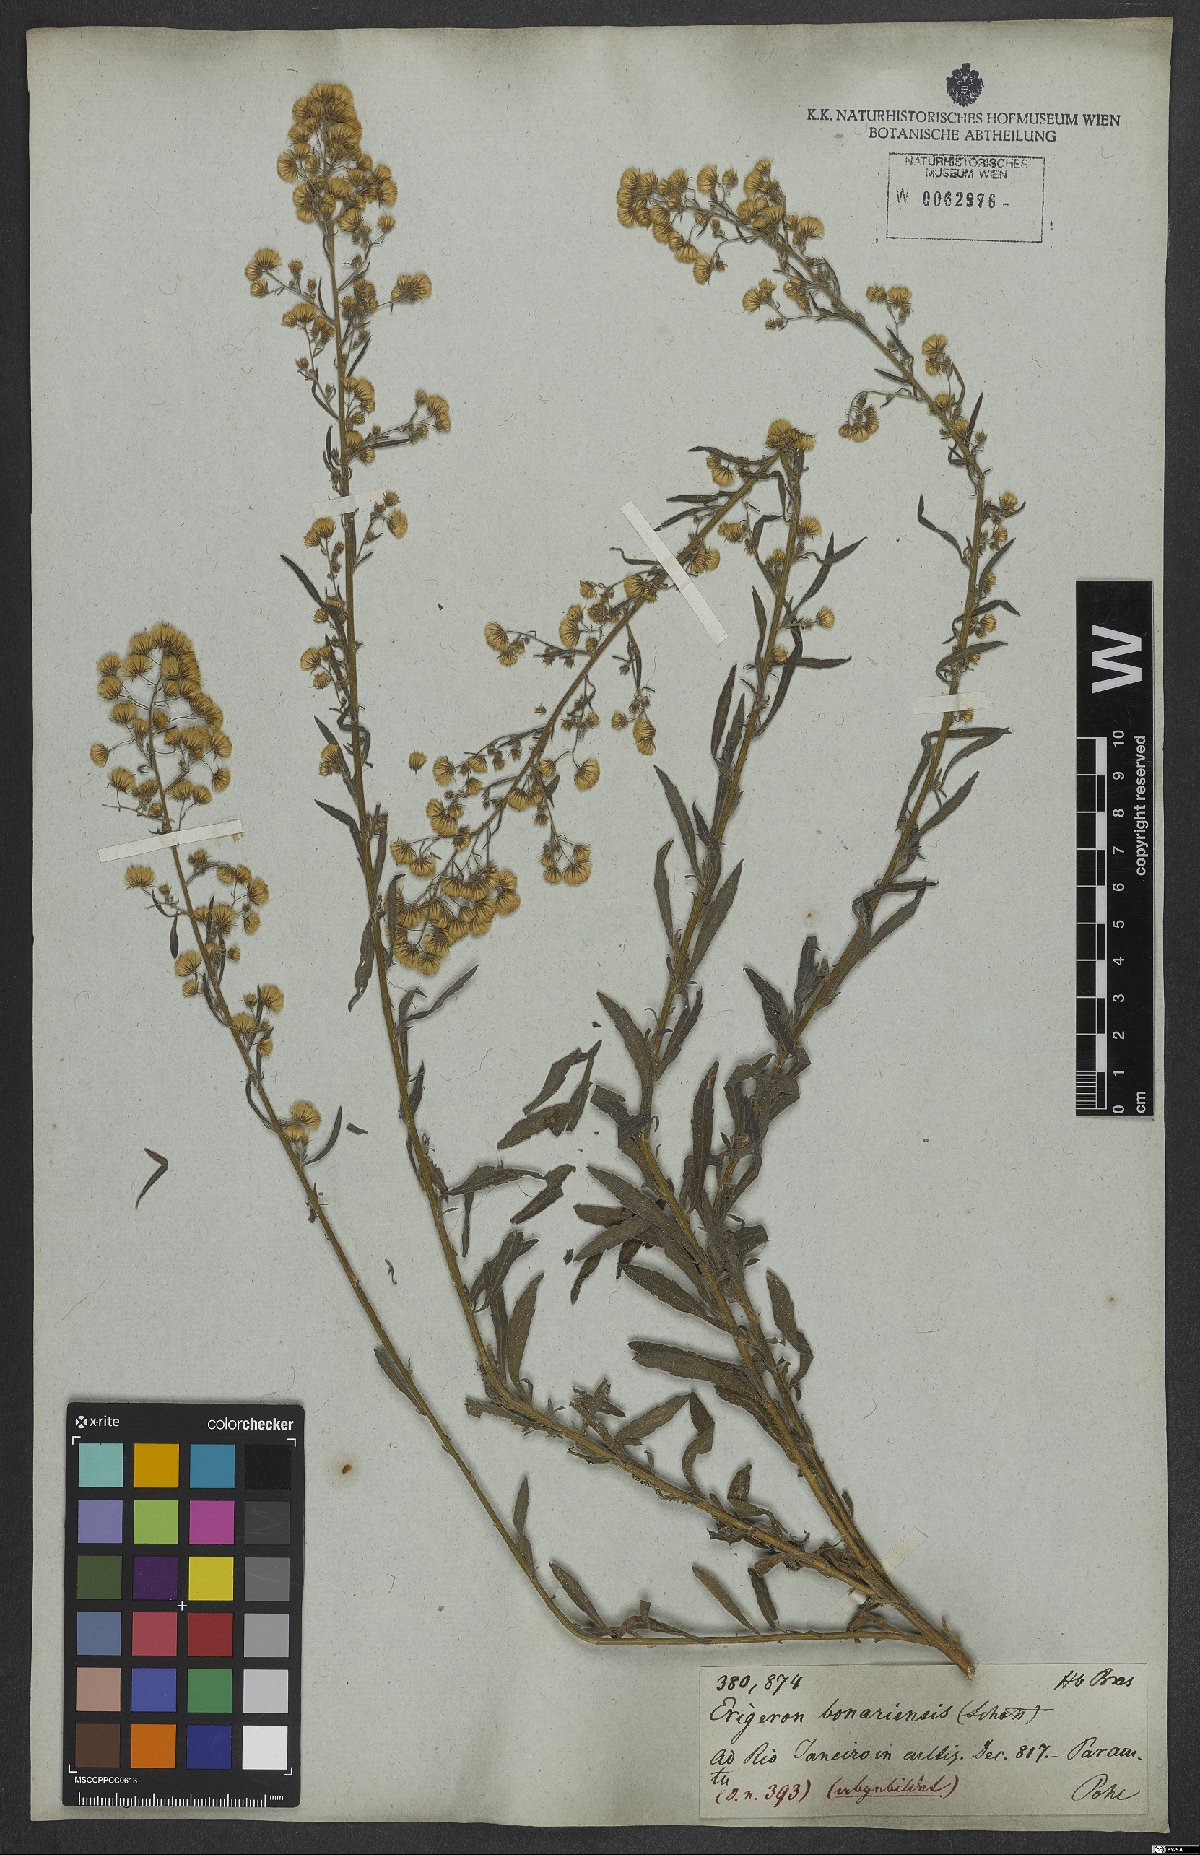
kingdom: Plantae
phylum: Tracheophyta
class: Magnoliopsida
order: Asterales
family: Asteraceae
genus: Erigeron
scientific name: Erigeron bonariensis
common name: Argentine fleabane
